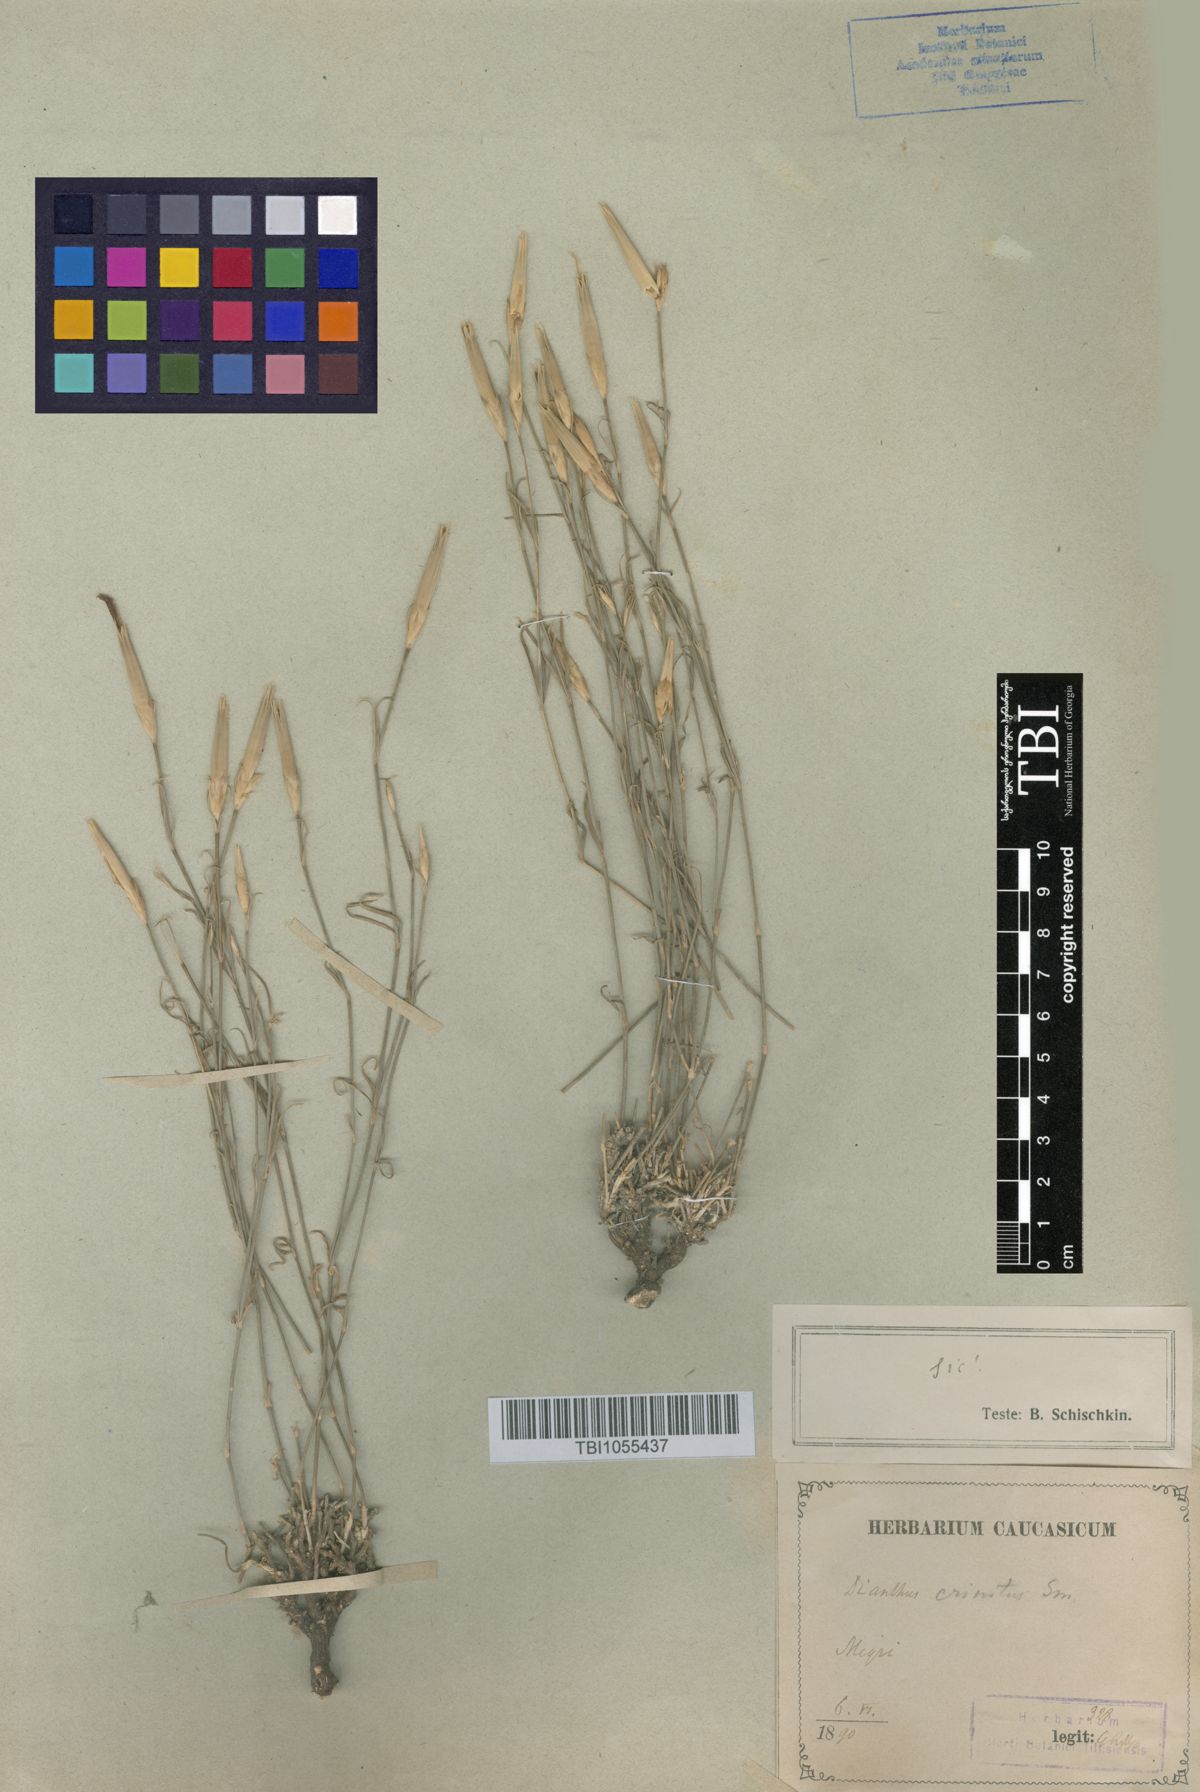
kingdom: Plantae
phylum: Tracheophyta
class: Magnoliopsida
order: Caryophyllales
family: Caryophyllaceae
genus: Dianthus
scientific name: Dianthus crinitus
